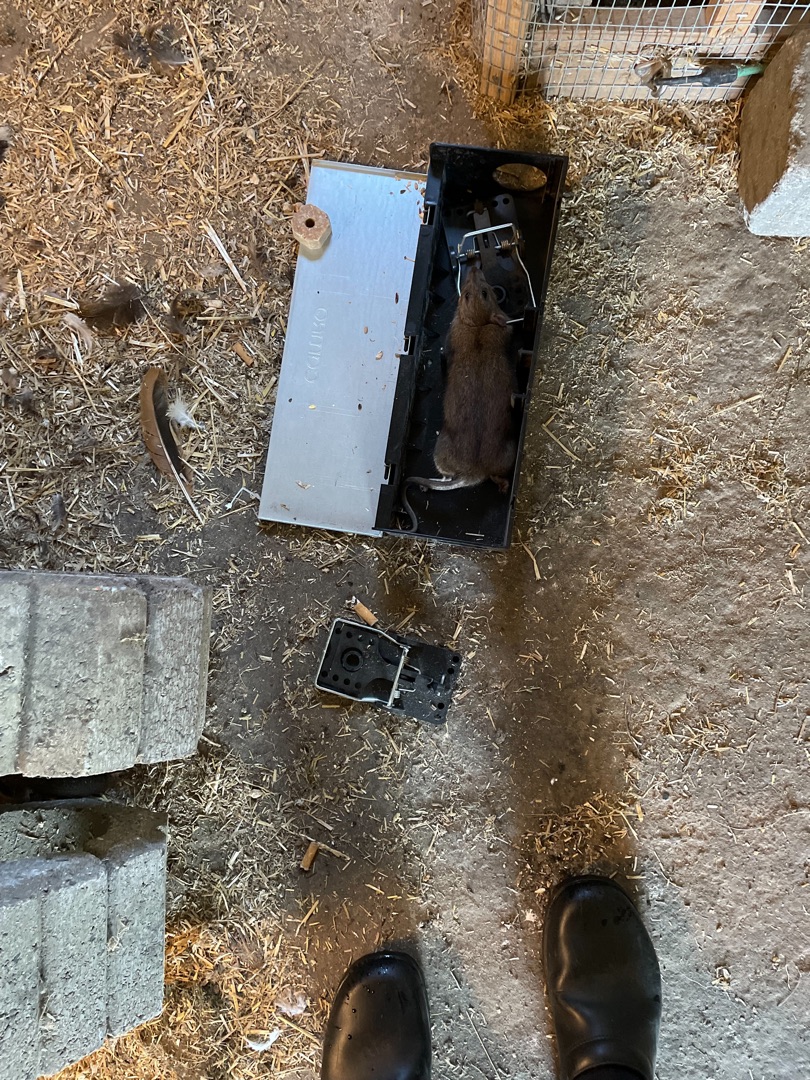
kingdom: Animalia
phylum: Chordata
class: Mammalia
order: Rodentia
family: Muridae
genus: Rattus
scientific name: Rattus norvegicus
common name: Brun rotte
